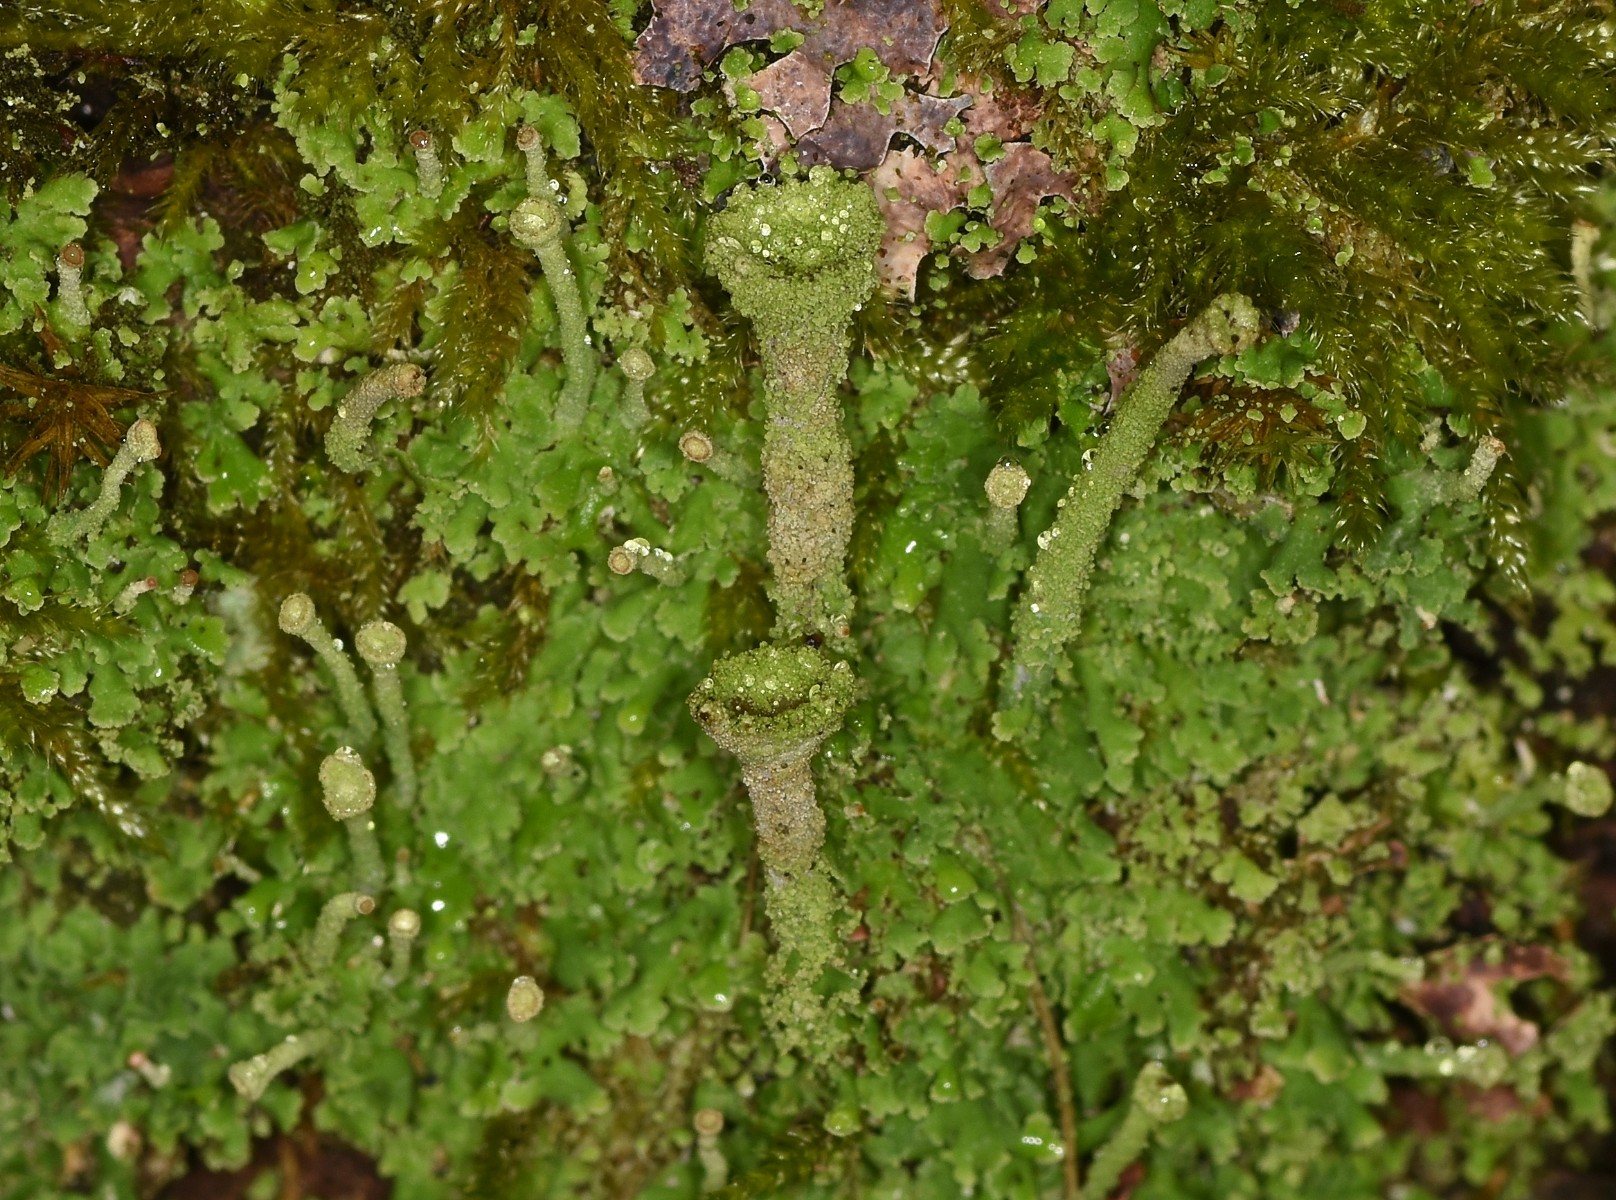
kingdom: Fungi
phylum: Ascomycota
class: Lecanoromycetes
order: Lecanorales
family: Cladoniaceae
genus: Cladonia
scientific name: Cladonia
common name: brungrøn bægerlav
